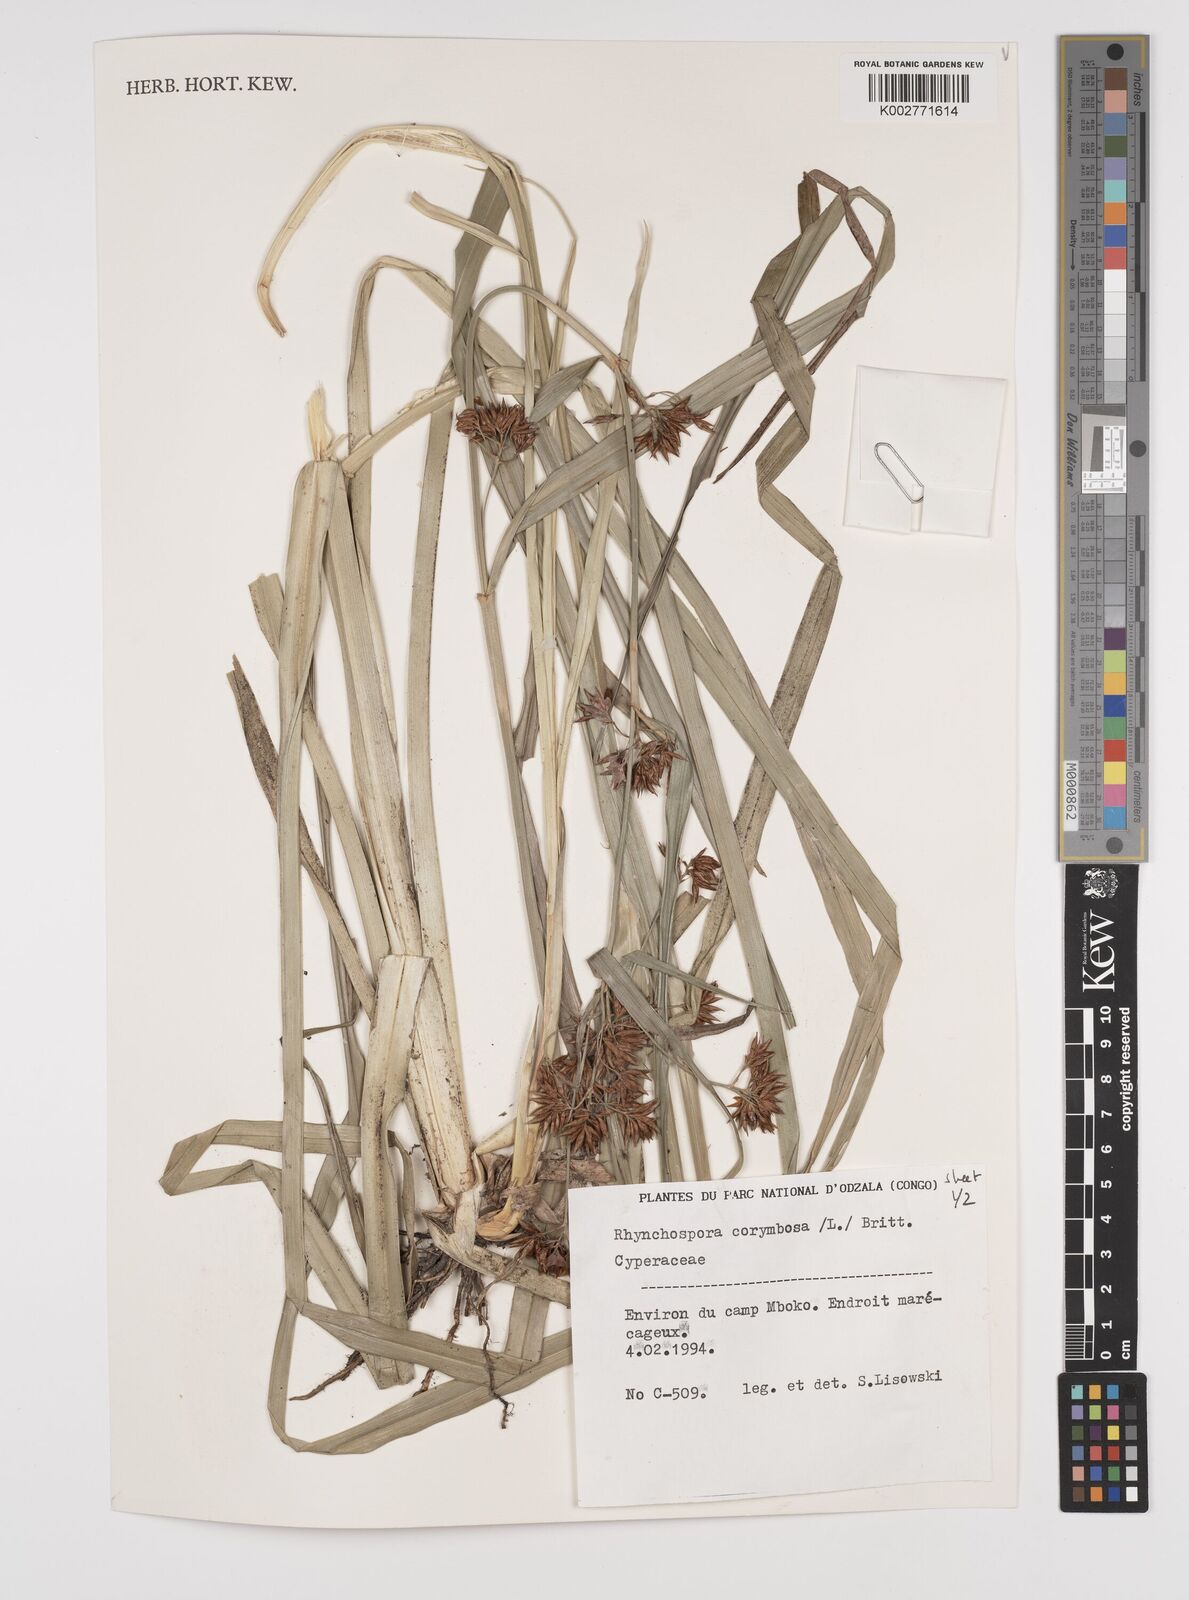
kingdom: Plantae
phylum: Tracheophyta
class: Liliopsida
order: Poales
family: Cyperaceae
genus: Rhynchospora
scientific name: Rhynchospora corymbosa
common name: Golden beak sedge
